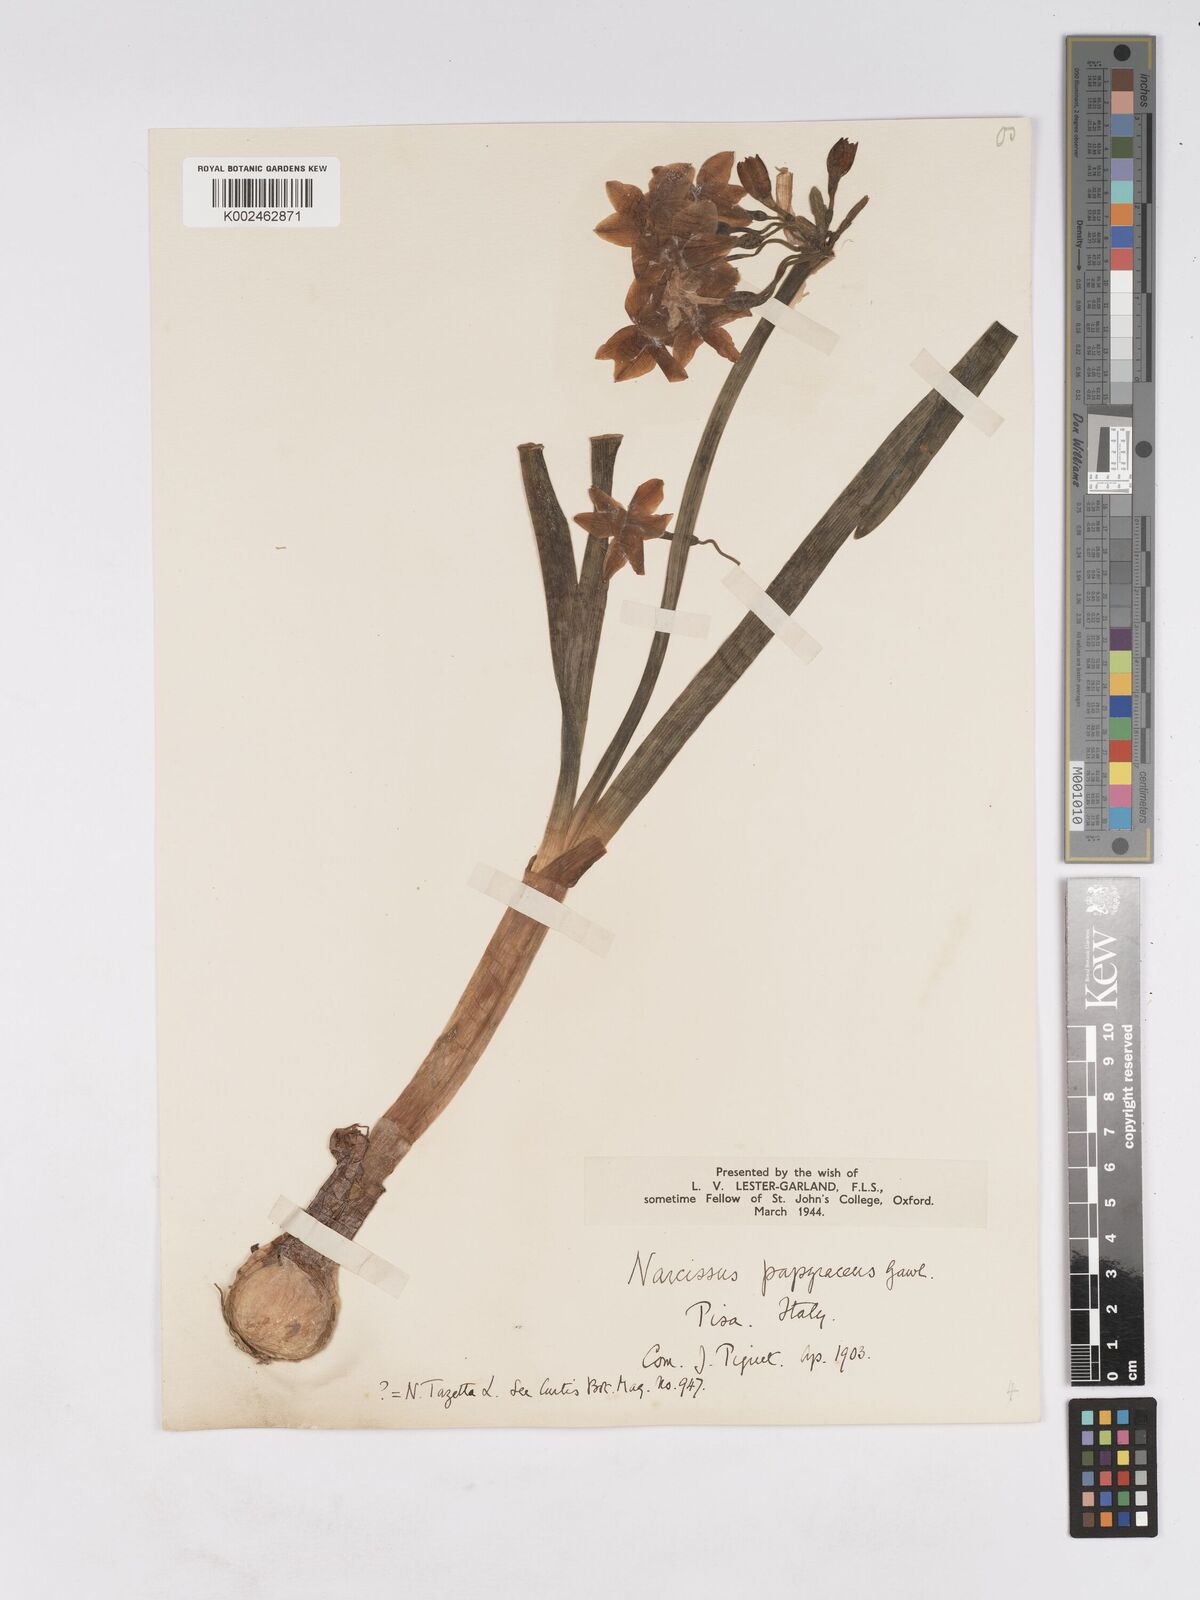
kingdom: Plantae
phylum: Tracheophyta
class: Liliopsida
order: Asparagales
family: Amaryllidaceae
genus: Narcissus
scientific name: Narcissus tazetta
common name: Bunch-flowered daffodil
